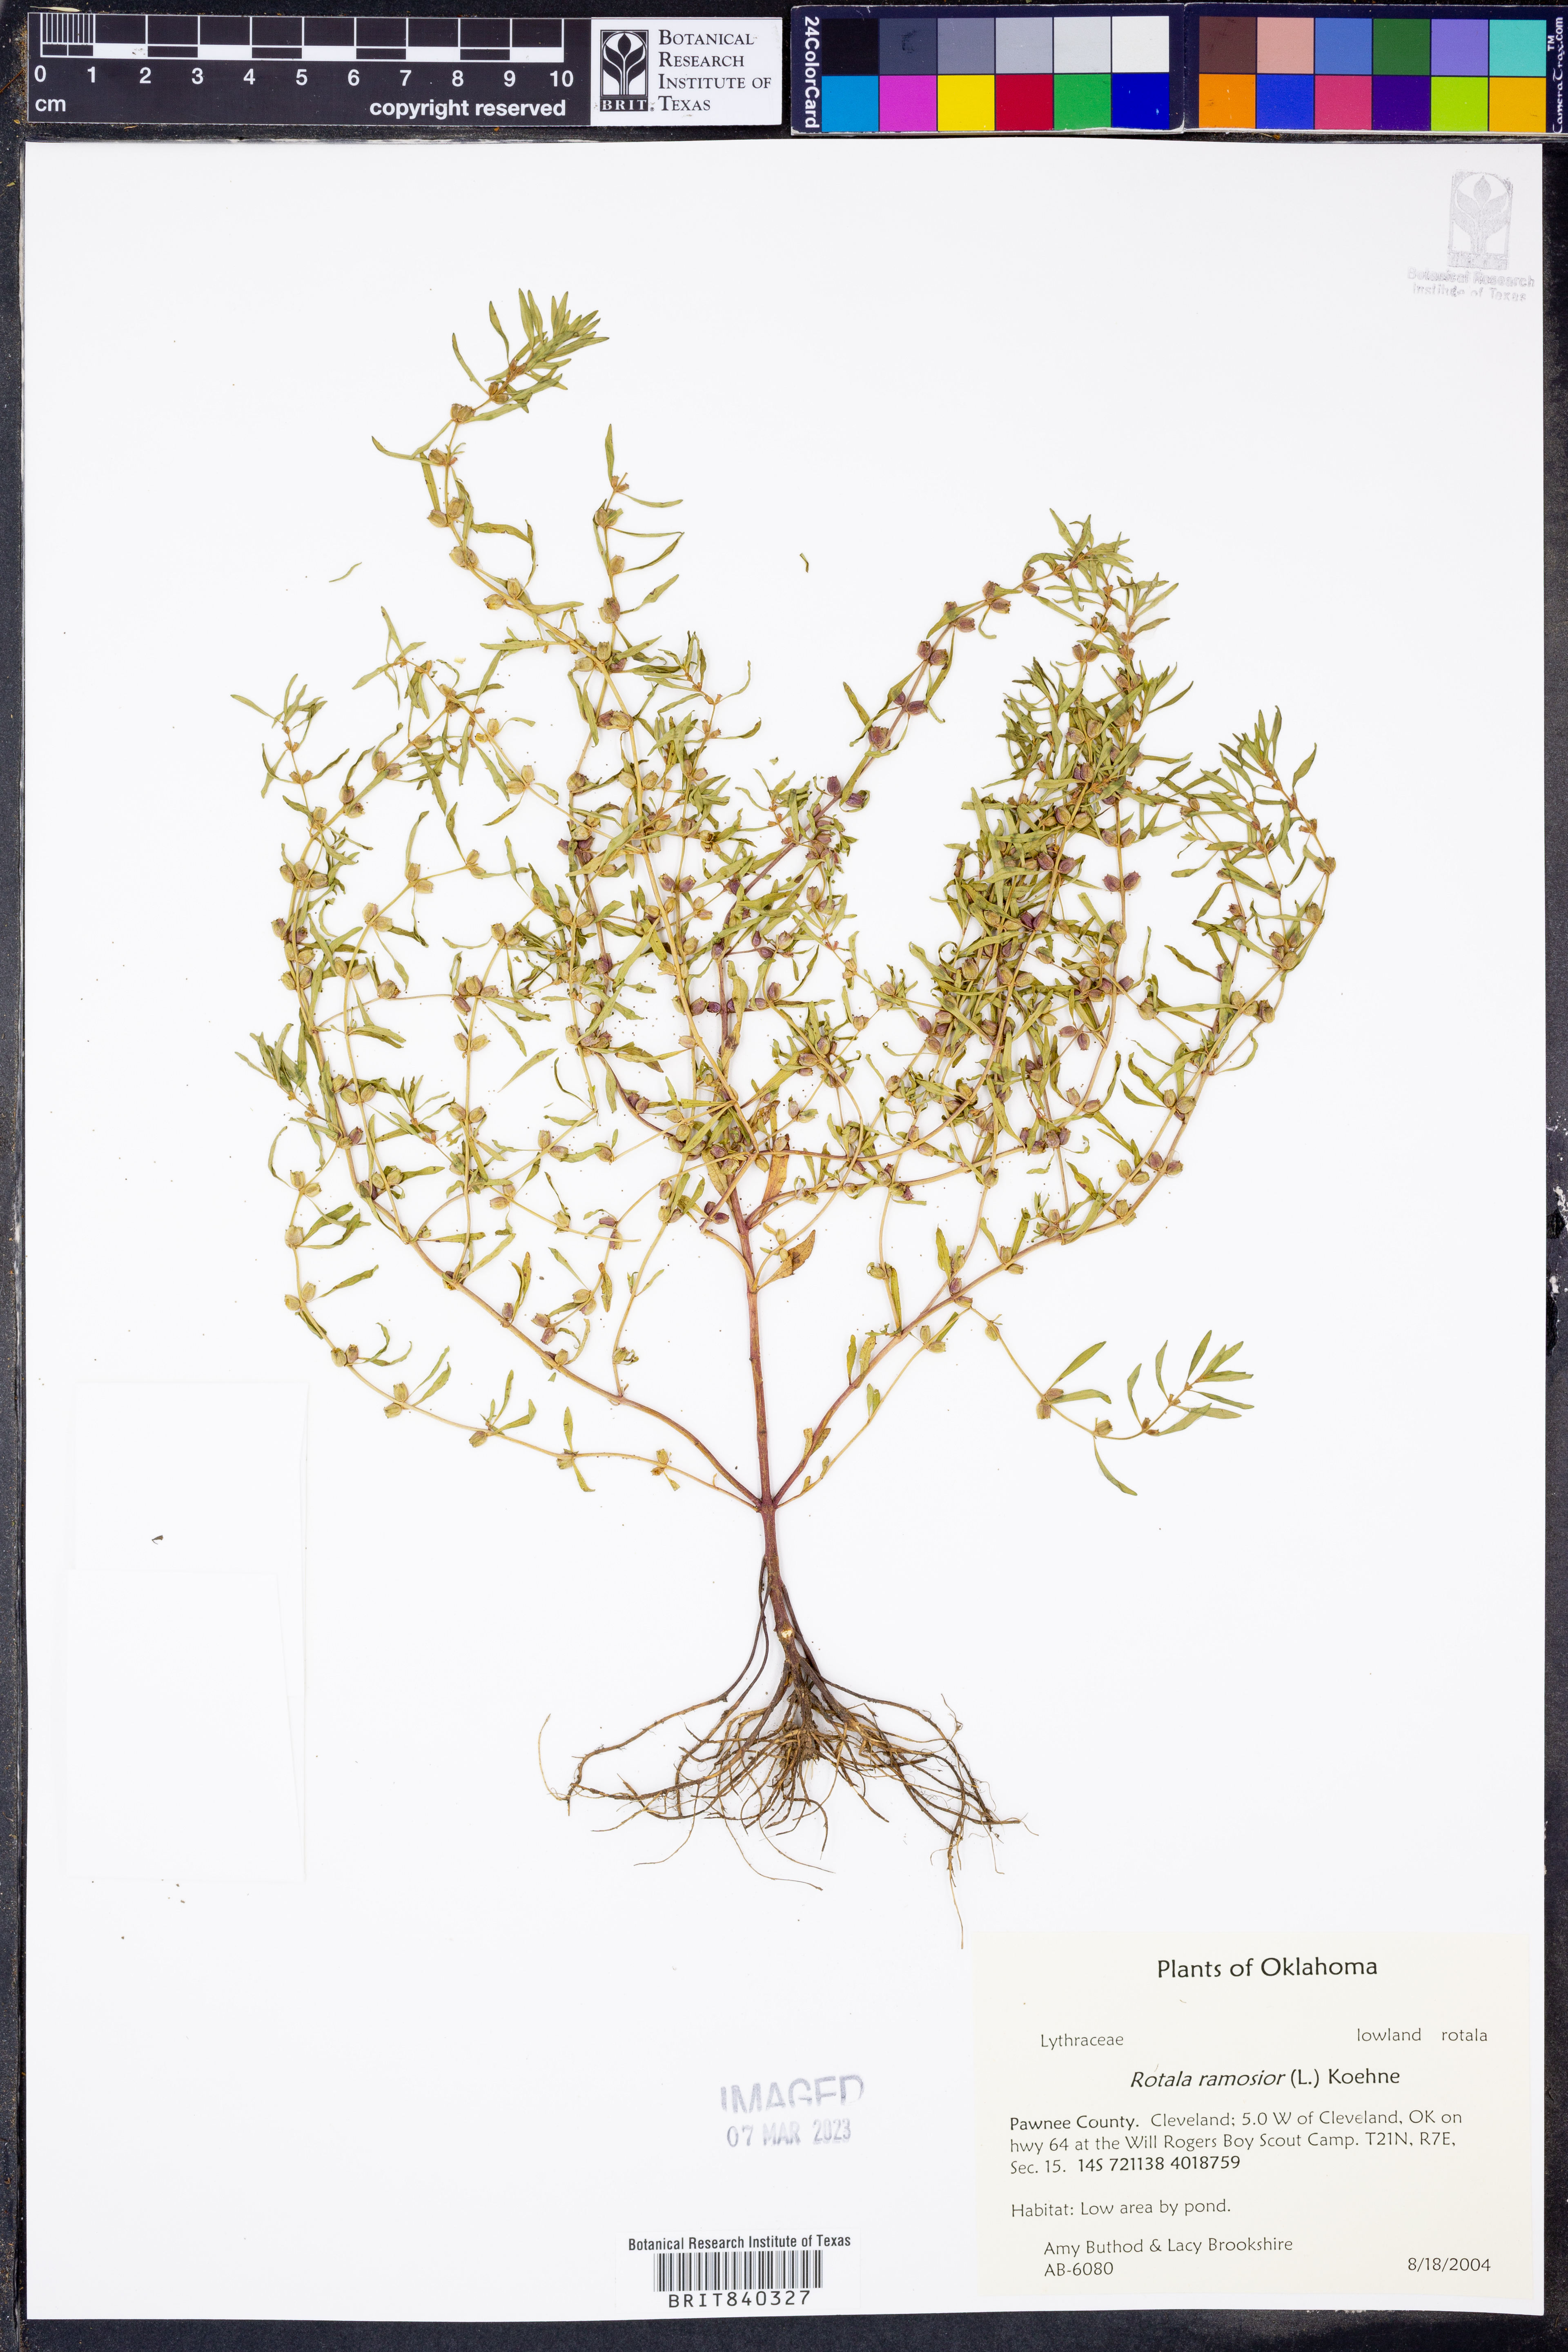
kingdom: Plantae
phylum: Tracheophyta
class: Magnoliopsida
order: Myrtales
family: Lythraceae
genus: Rotala
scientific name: Rotala ramosior
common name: Lowland rotala
